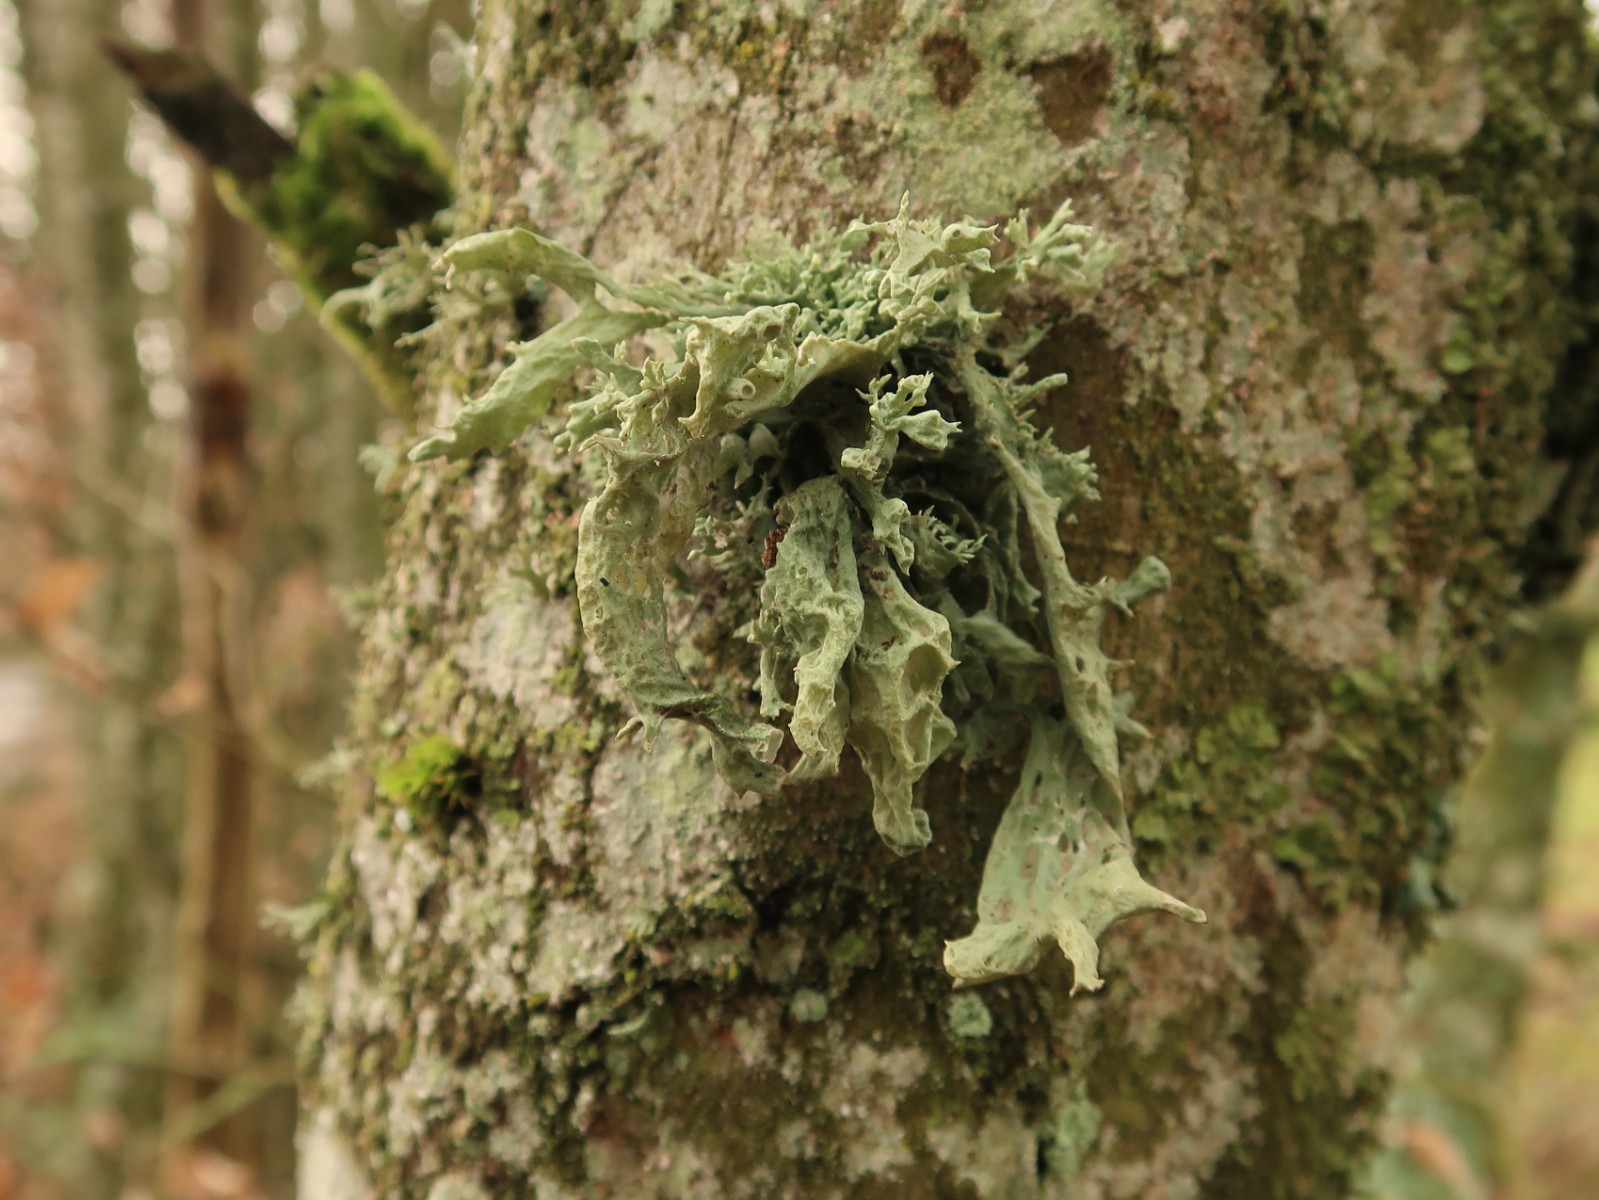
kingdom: Fungi
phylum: Ascomycota
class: Lecanoromycetes
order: Lecanorales
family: Ramalinaceae
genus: Ramalina
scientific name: Ramalina fastigiata
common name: tue-grenlav
